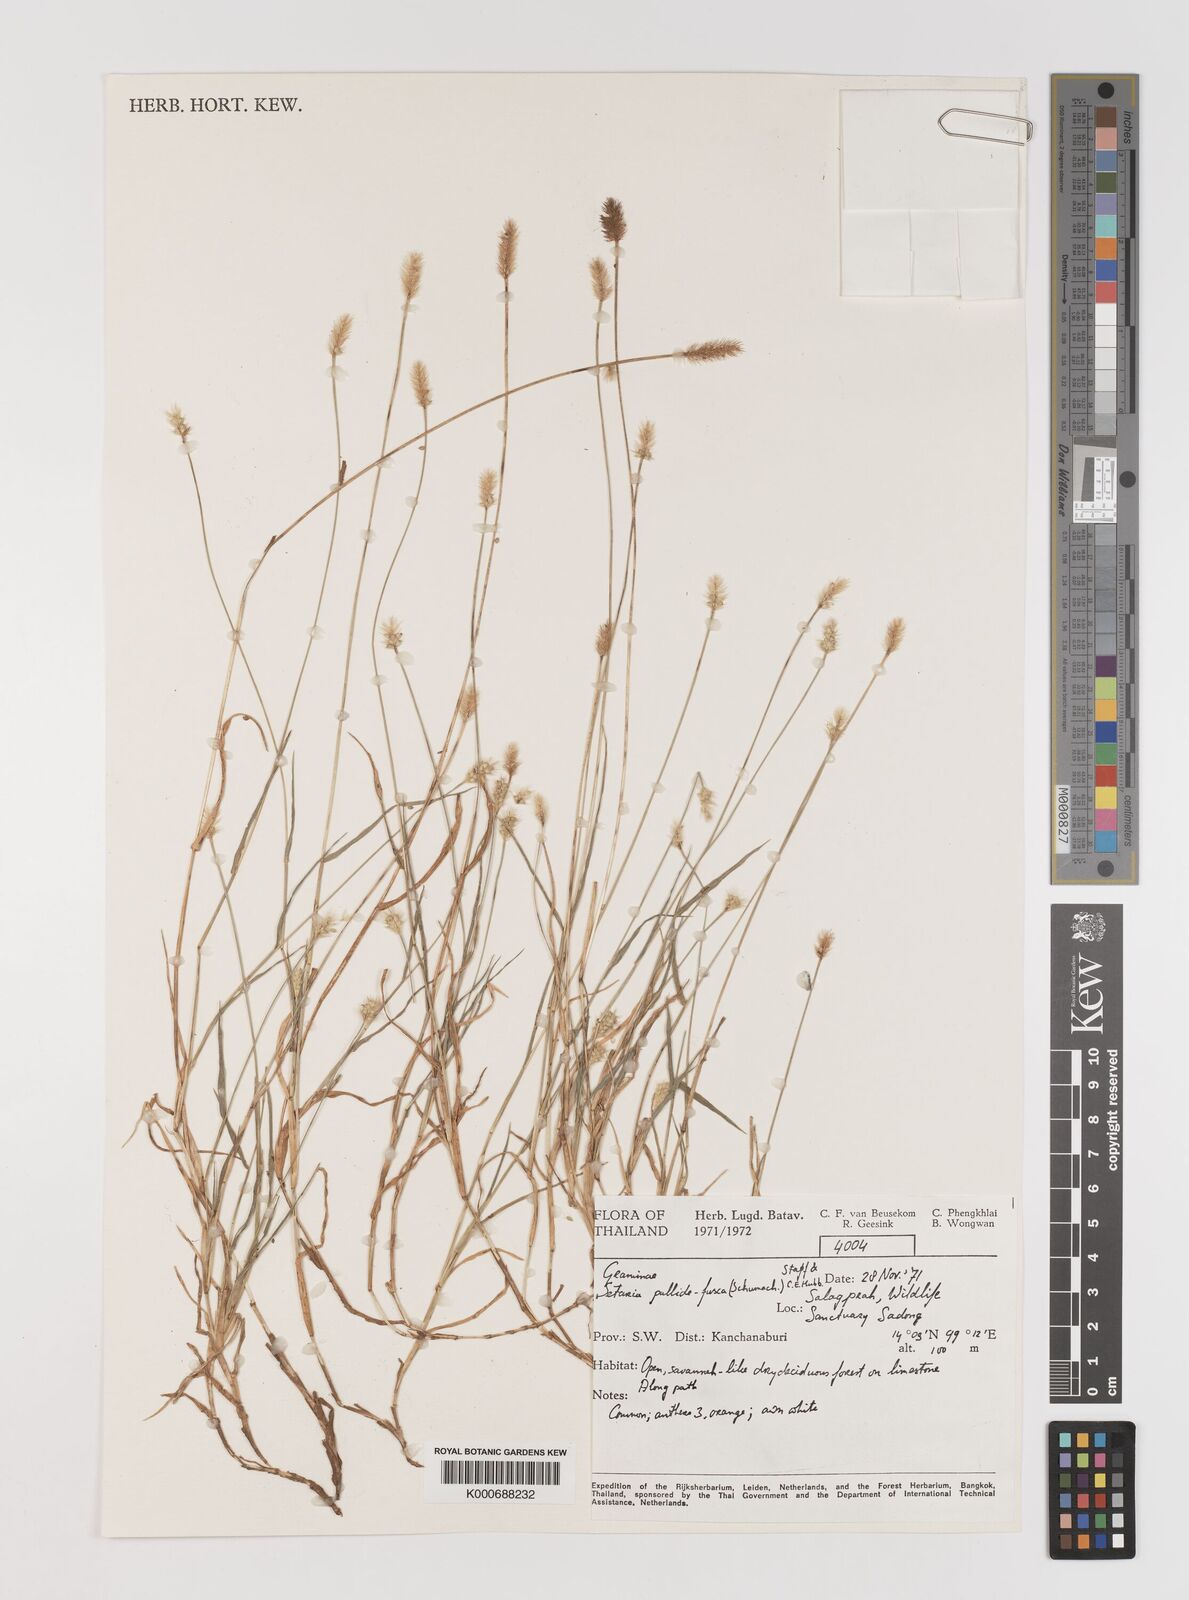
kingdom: Plantae
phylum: Tracheophyta
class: Liliopsida
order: Poales
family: Poaceae
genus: Setaria
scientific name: Setaria pumila
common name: Yellow bristle-grass
